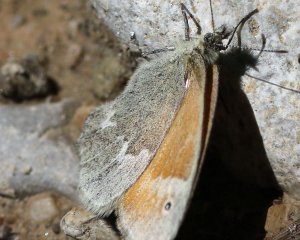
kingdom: Animalia
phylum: Arthropoda
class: Insecta
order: Lepidoptera
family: Nymphalidae
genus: Coenonympha
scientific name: Coenonympha tullia
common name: Large Heath
